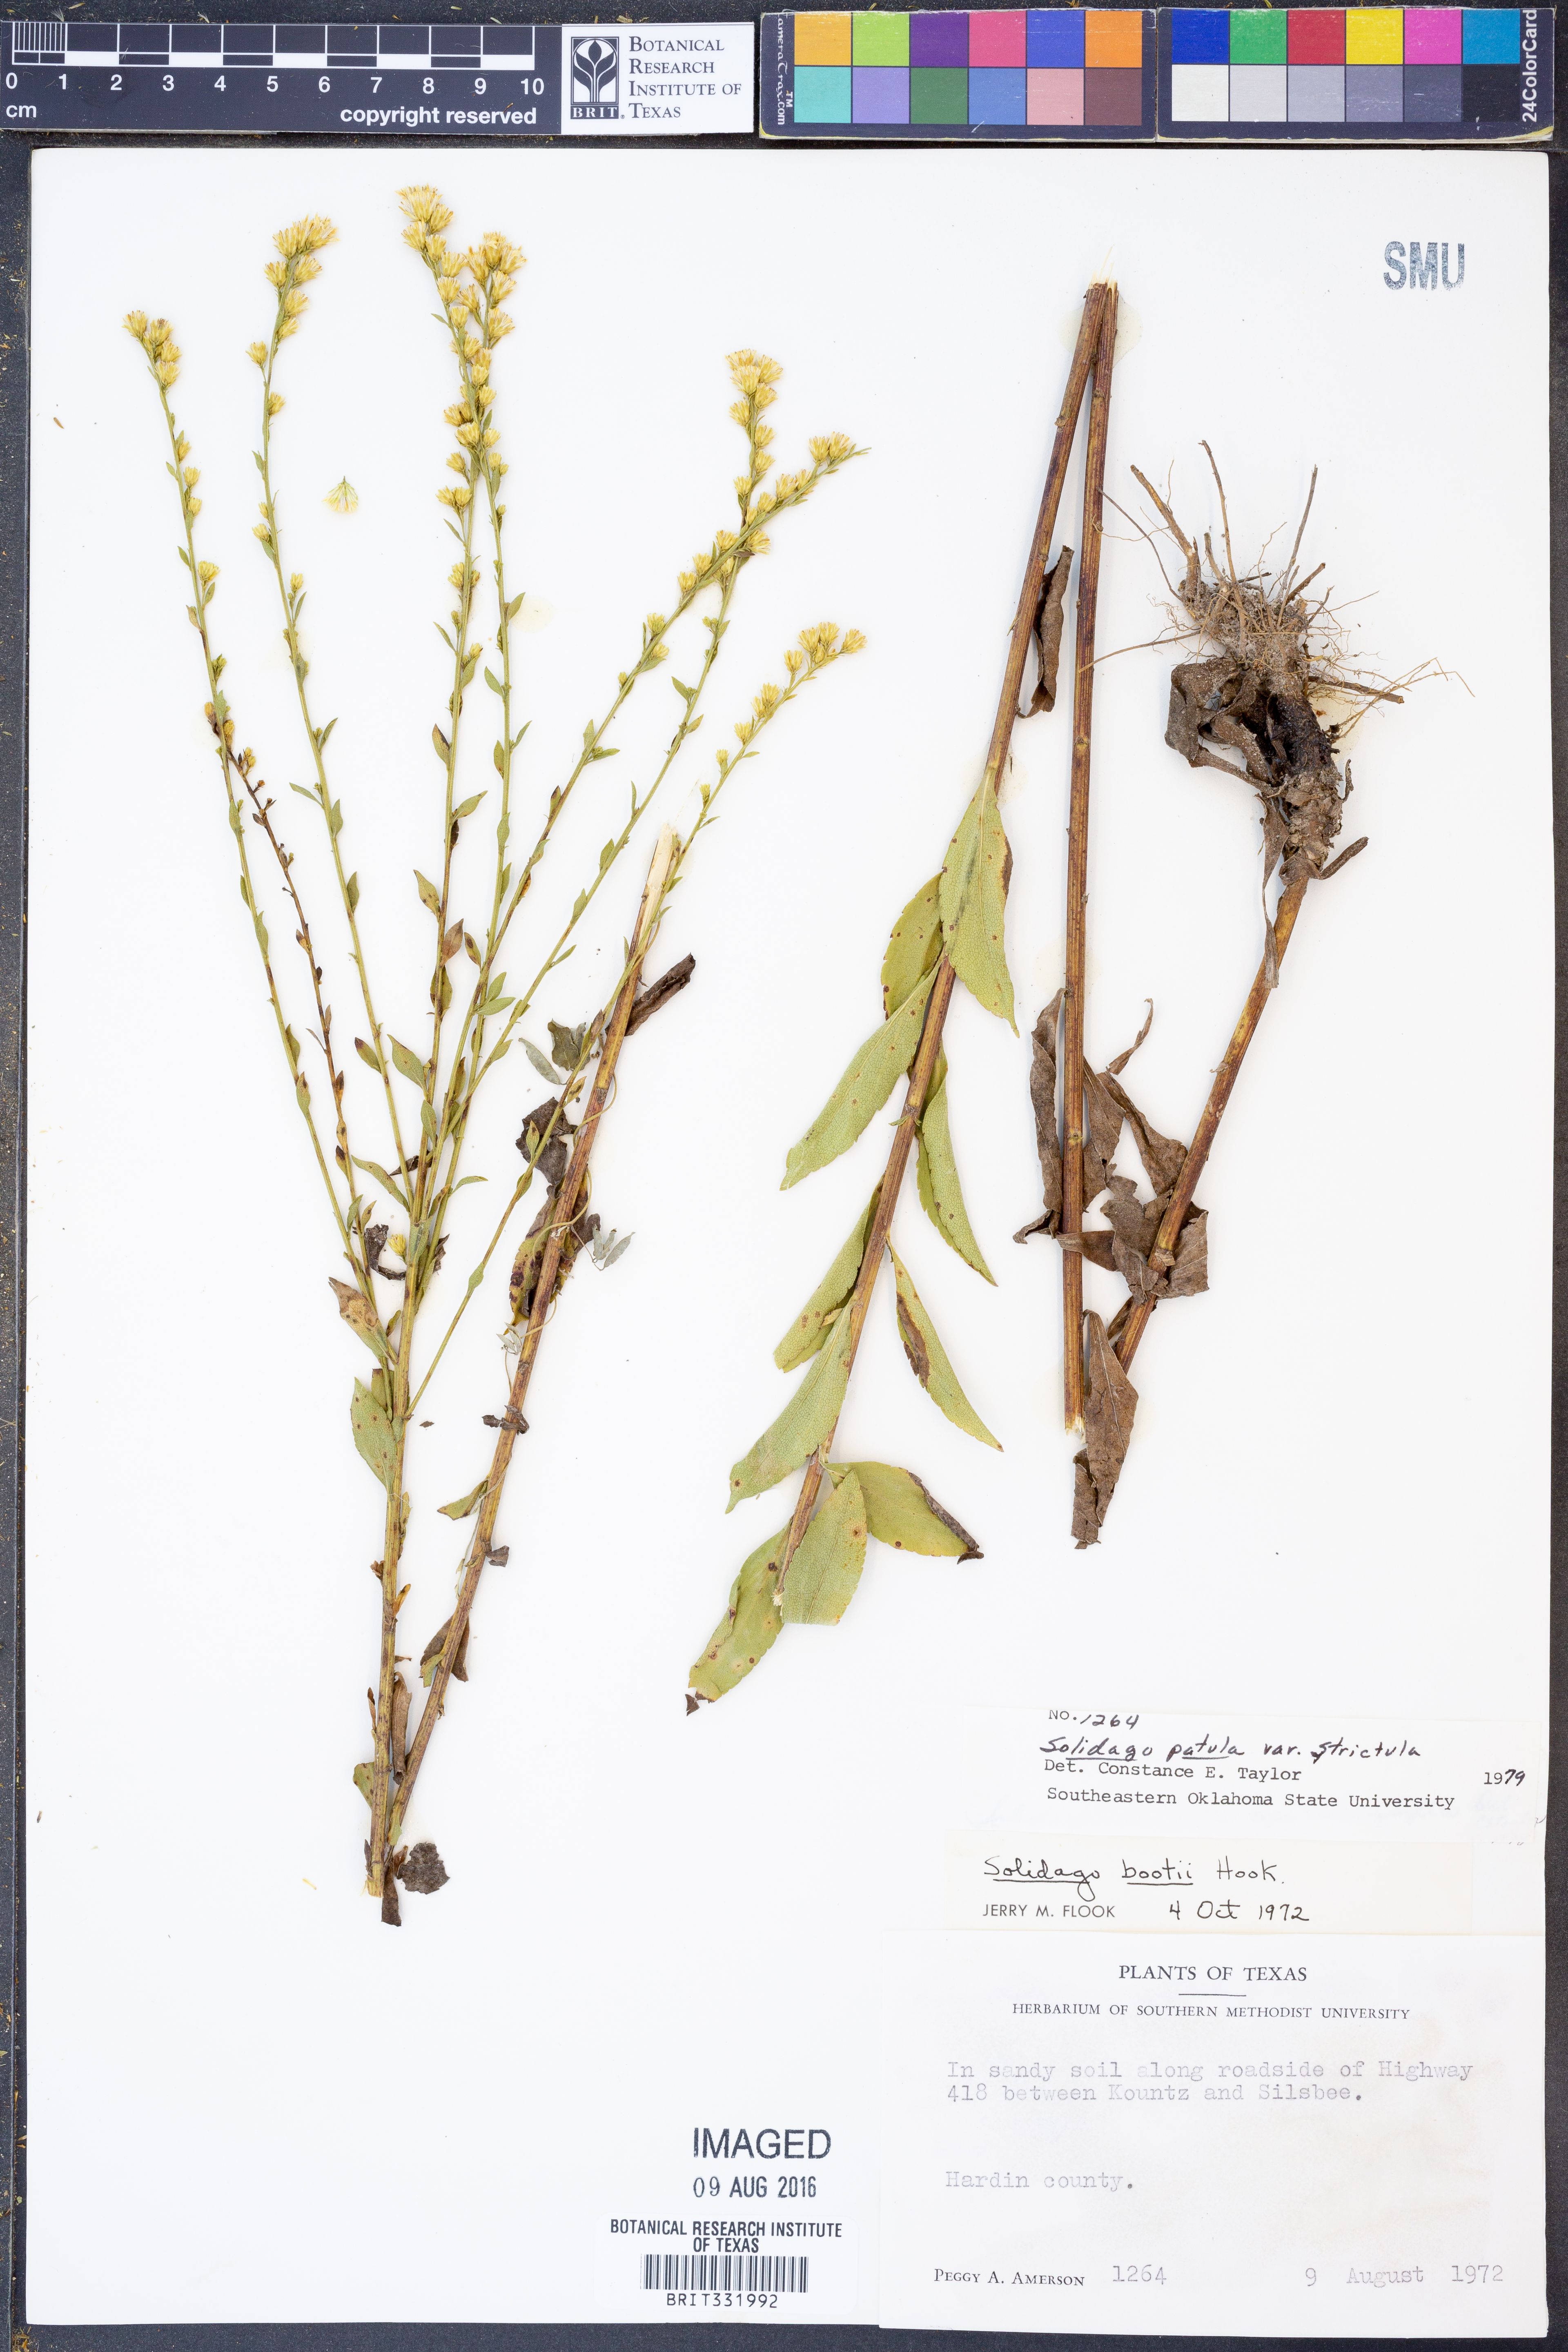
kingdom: Plantae
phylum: Tracheophyta
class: Magnoliopsida
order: Asterales
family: Asteraceae
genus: Solidago
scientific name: Solidago salicina
